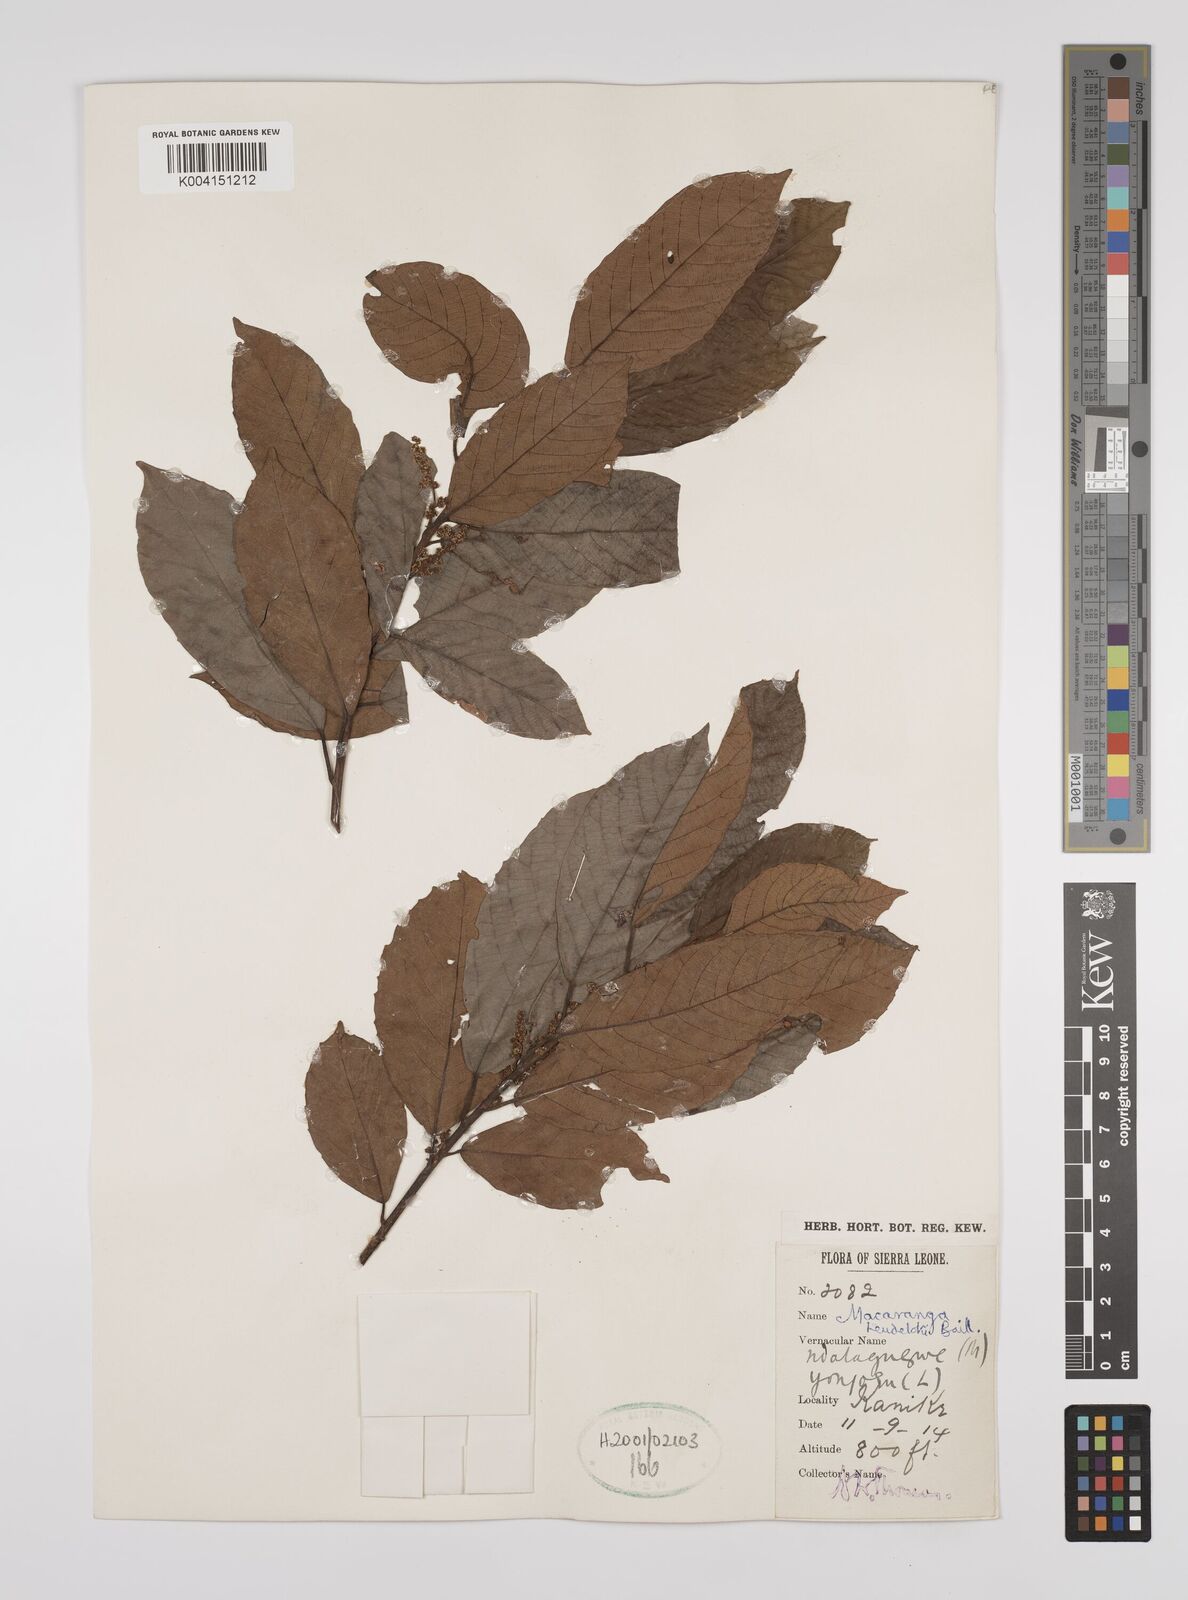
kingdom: Plantae
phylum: Tracheophyta
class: Magnoliopsida
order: Malpighiales
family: Euphorbiaceae
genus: Macaranga
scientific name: Macaranga heudelotii
